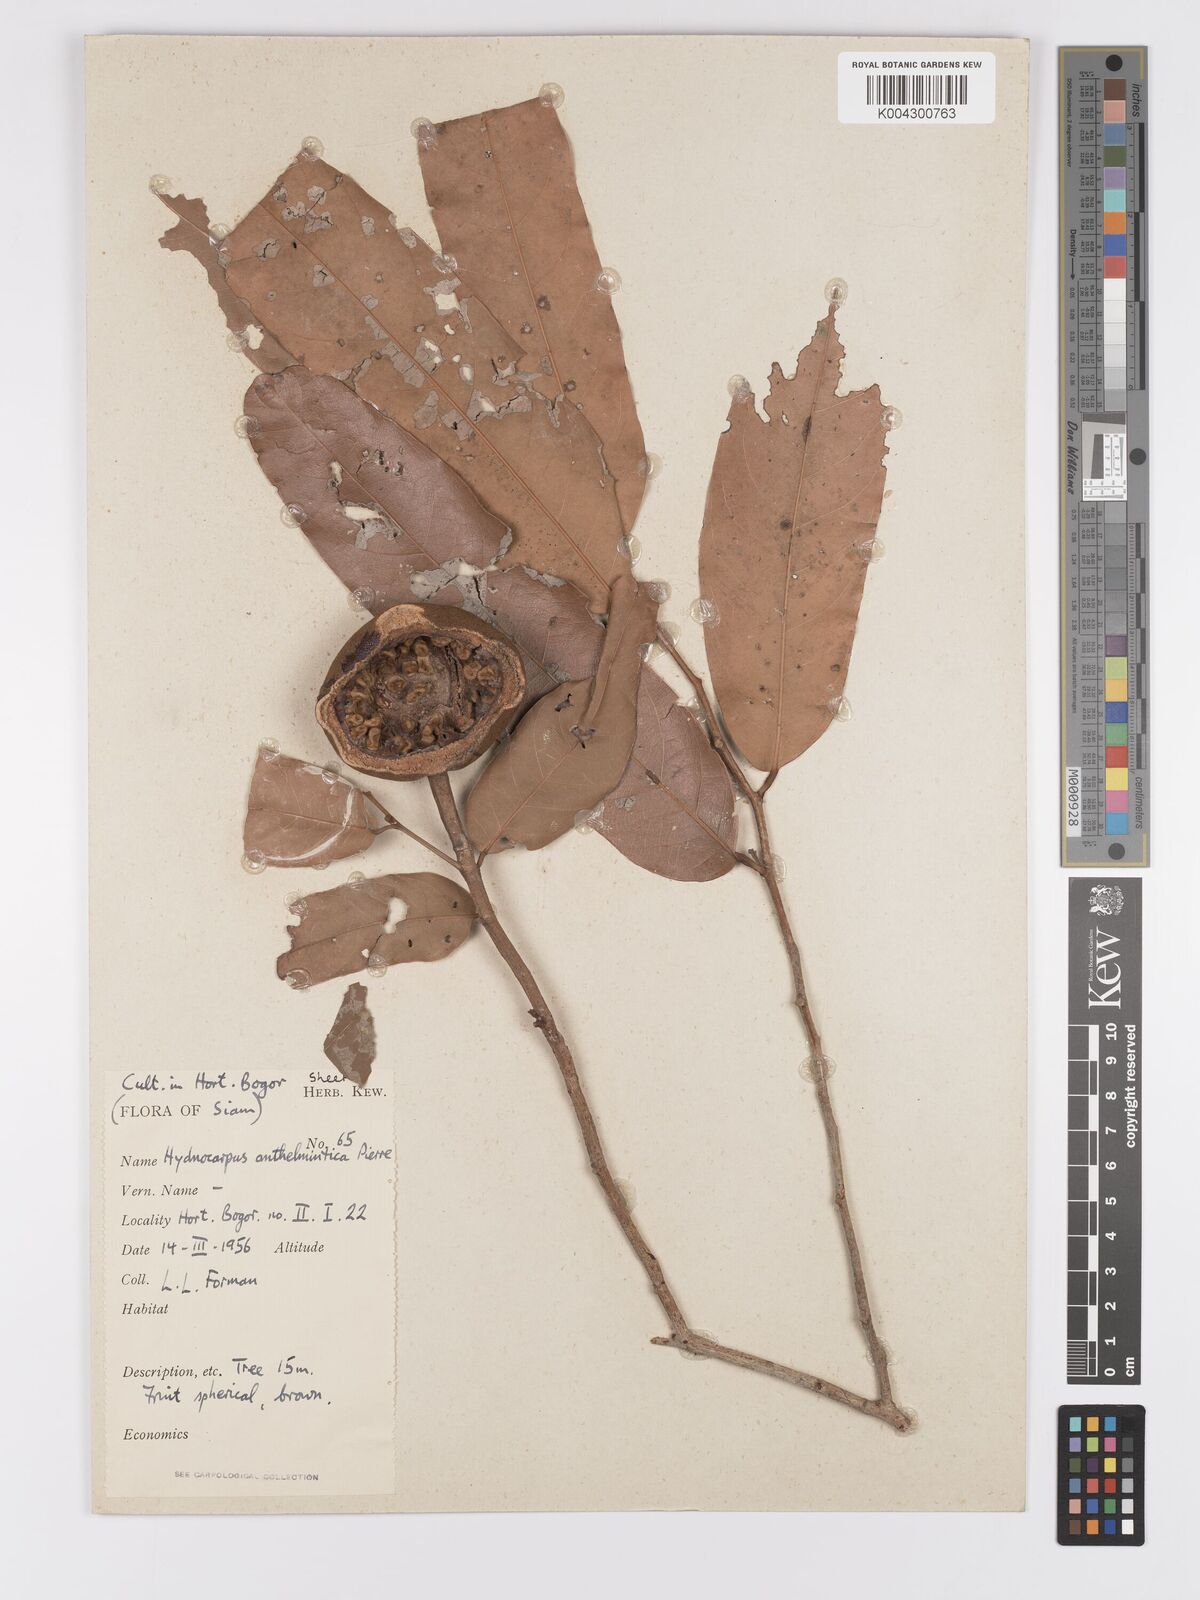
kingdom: Plantae
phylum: Tracheophyta
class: Magnoliopsida
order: Malpighiales
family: Achariaceae
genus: Hydnocarpus
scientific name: Hydnocarpus castaneus
